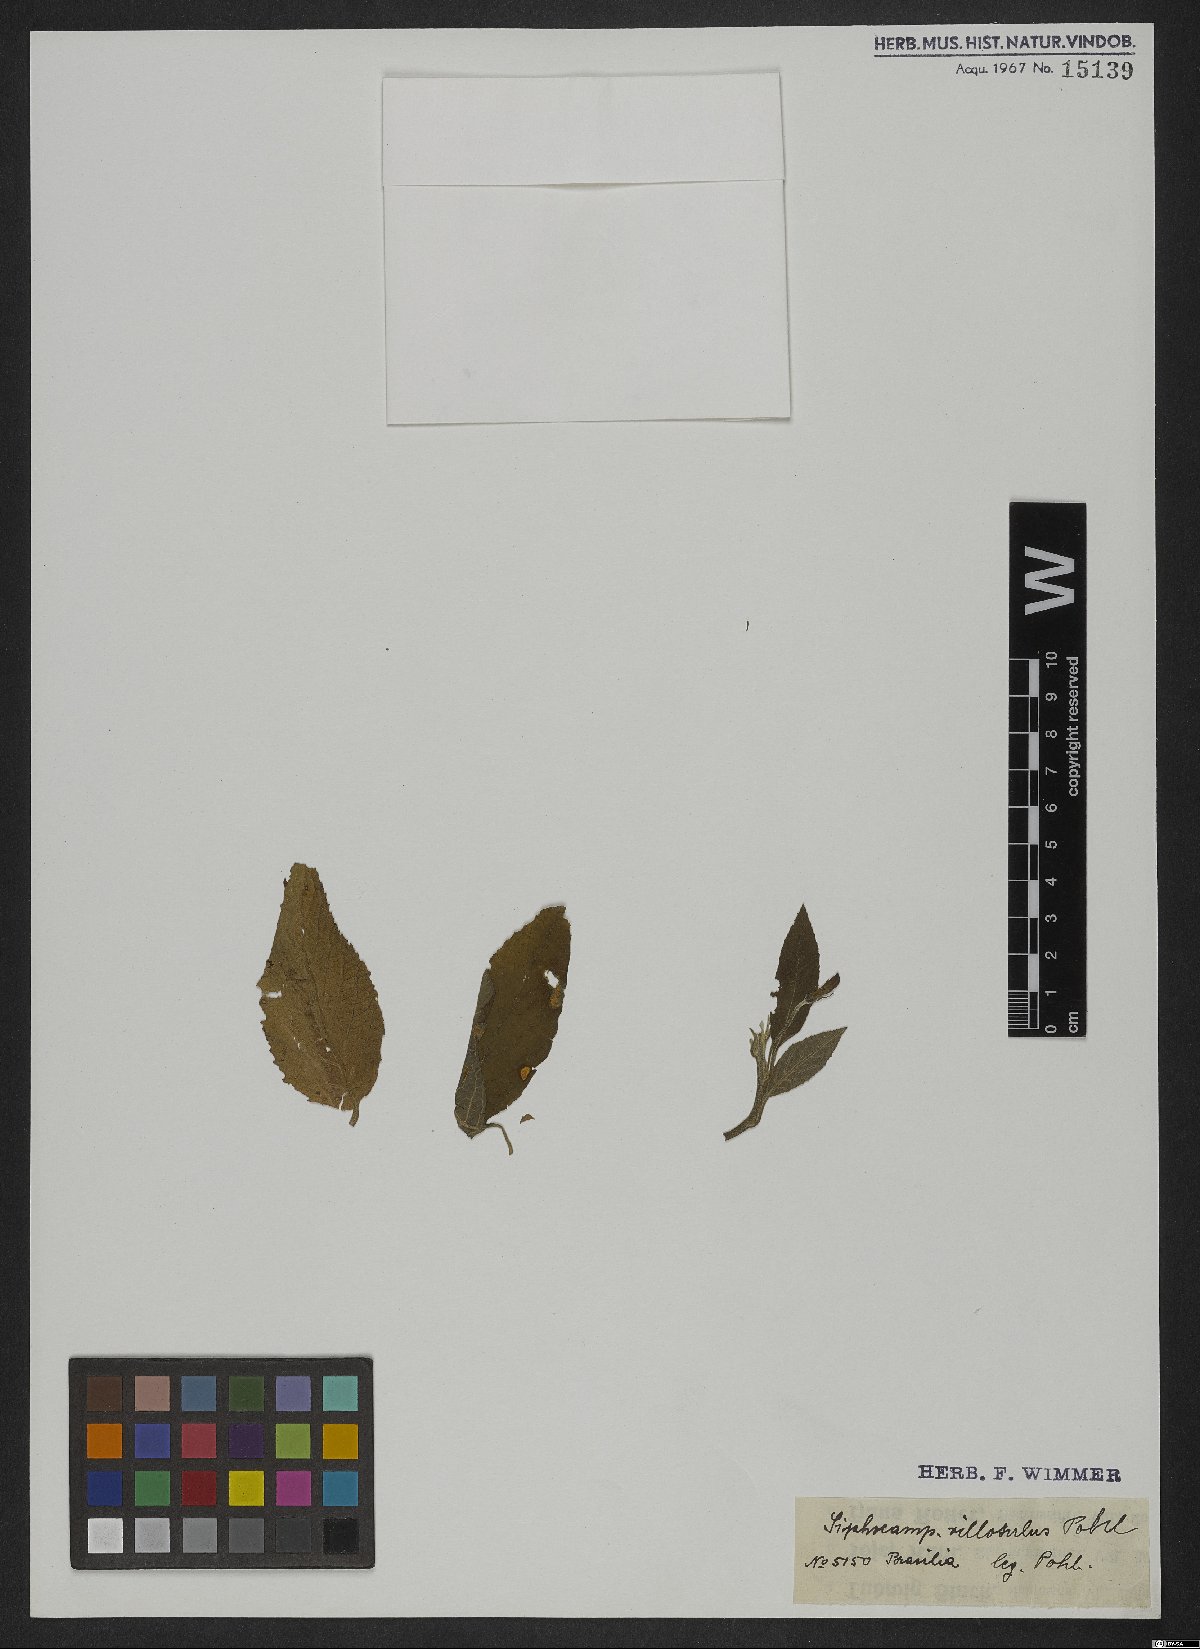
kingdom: Plantae
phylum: Tracheophyta
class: Magnoliopsida
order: Asterales
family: Campanulaceae
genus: Siphocampylus
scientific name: Siphocampylus macropodus
